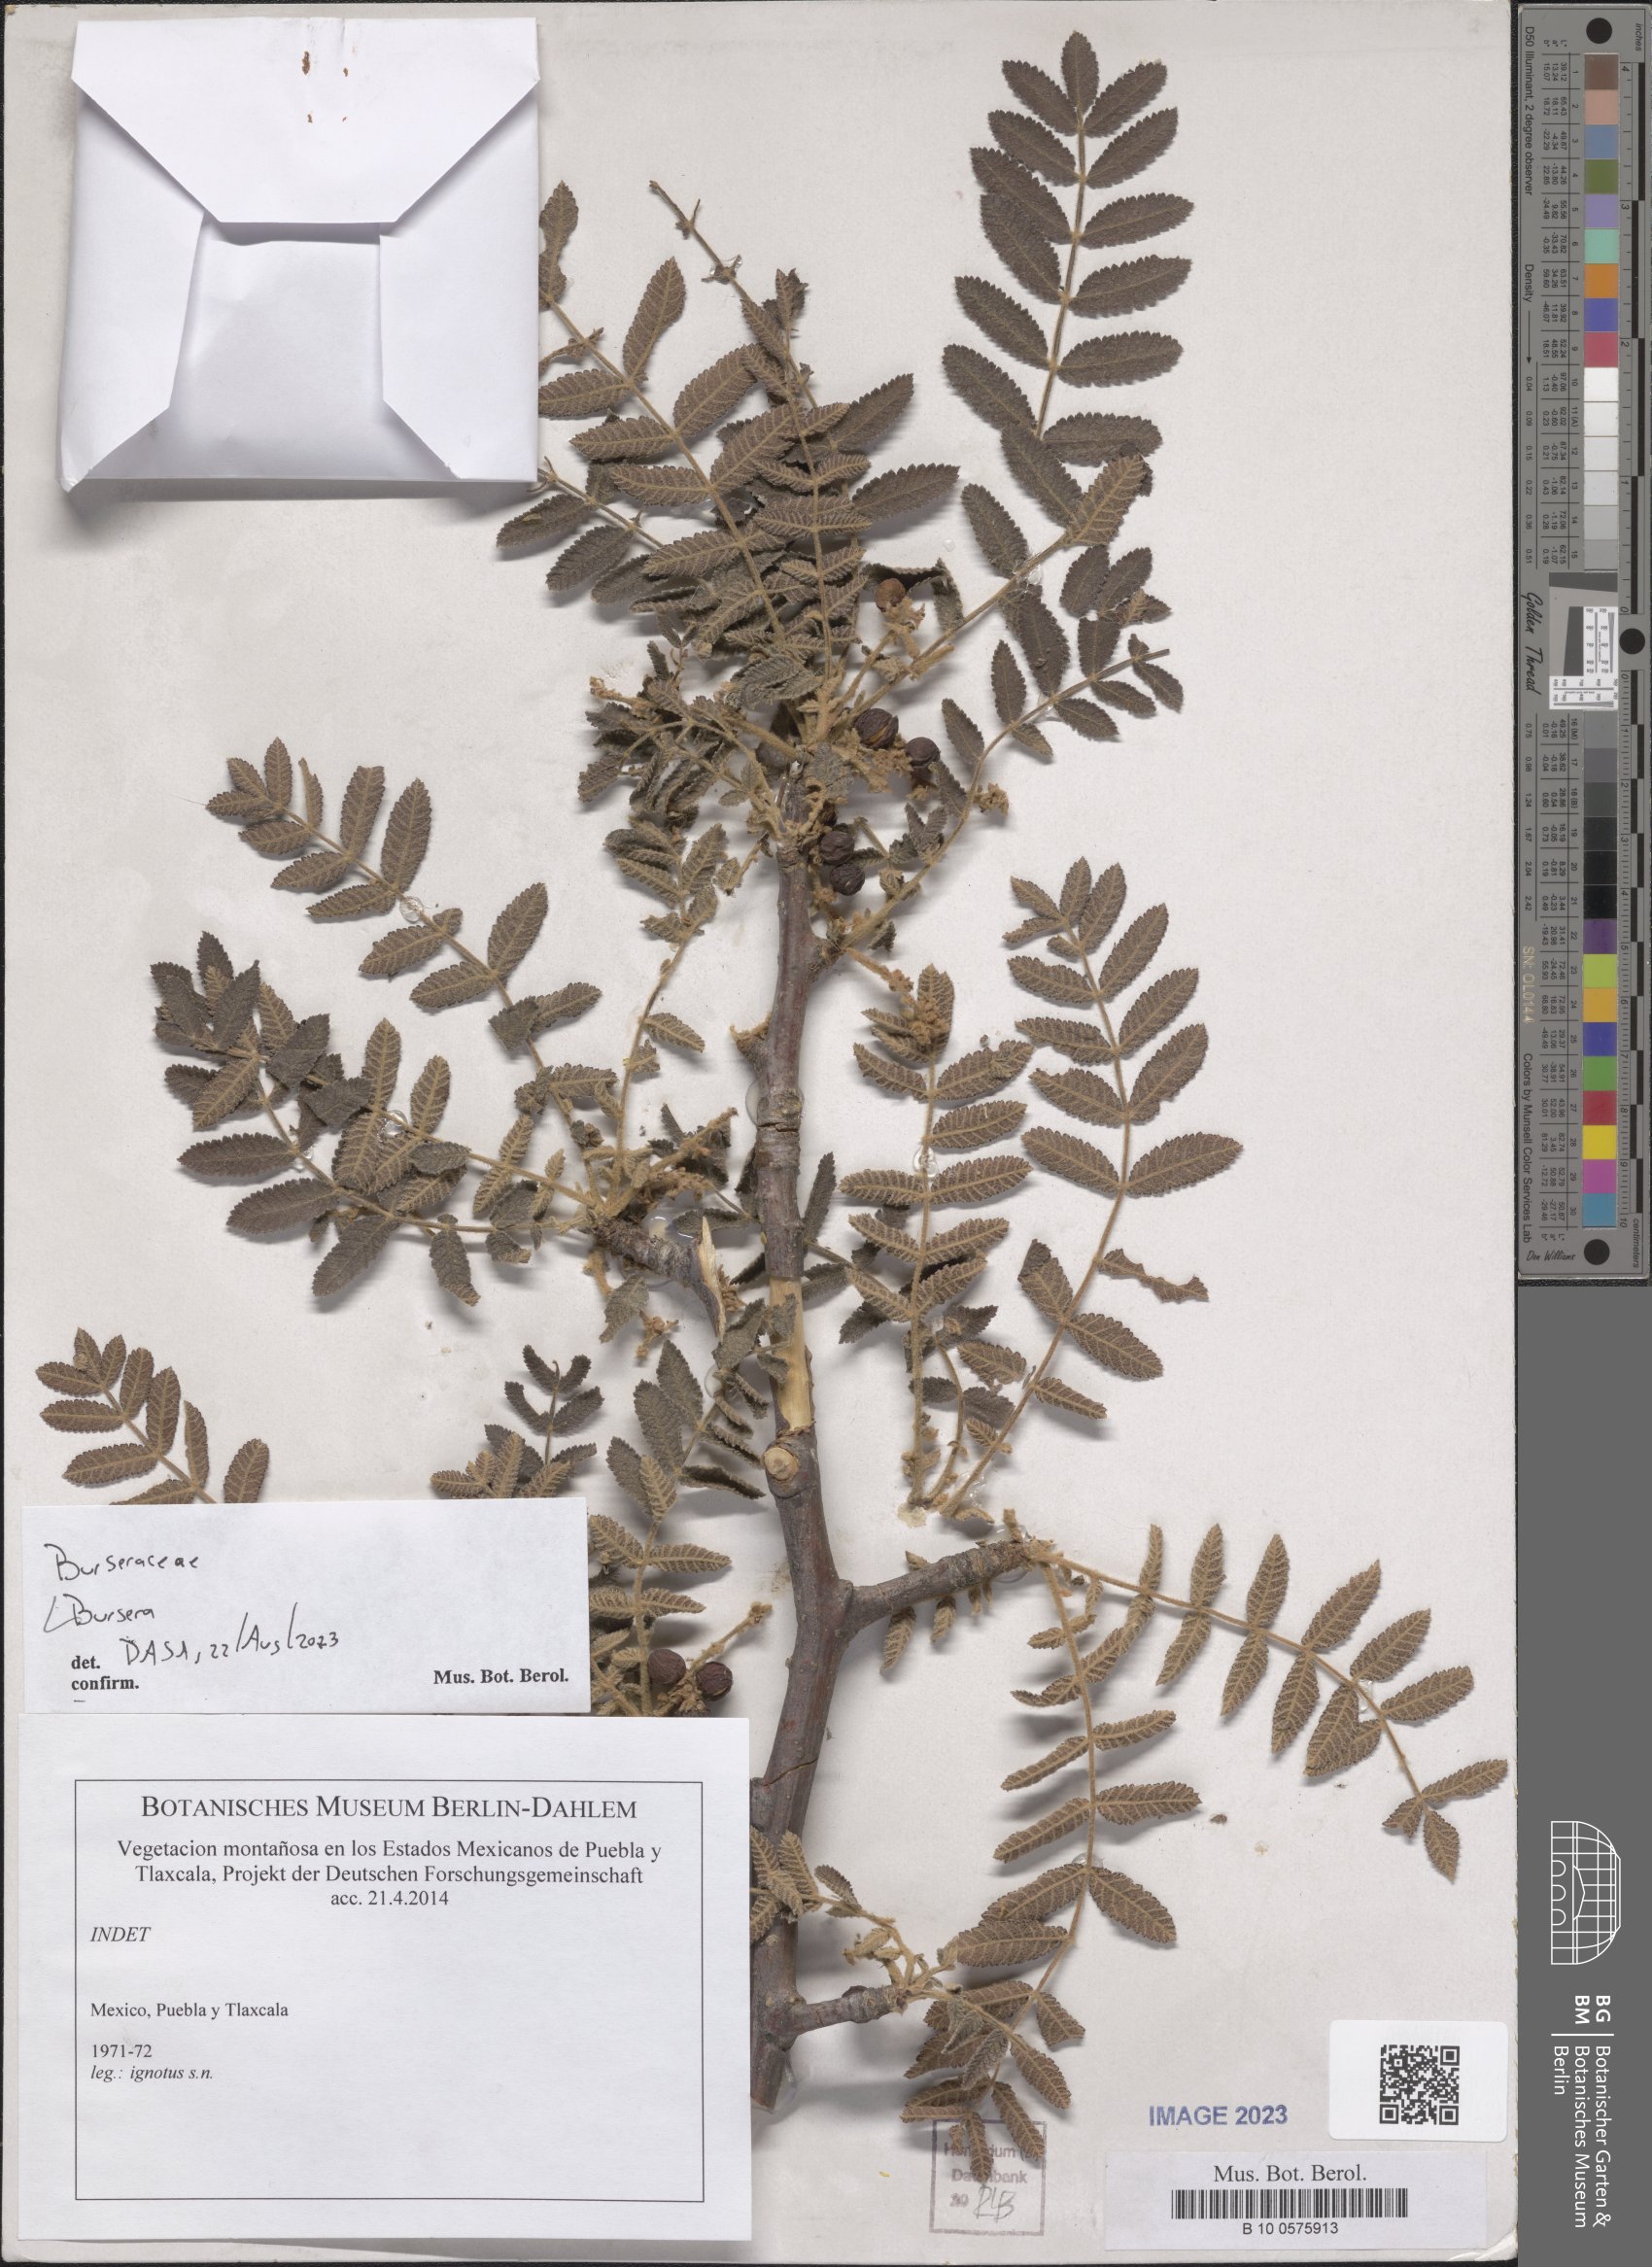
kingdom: Plantae
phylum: Tracheophyta
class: Magnoliopsida
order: Sapindales
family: Burseraceae
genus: Bursera
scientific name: Bursera
